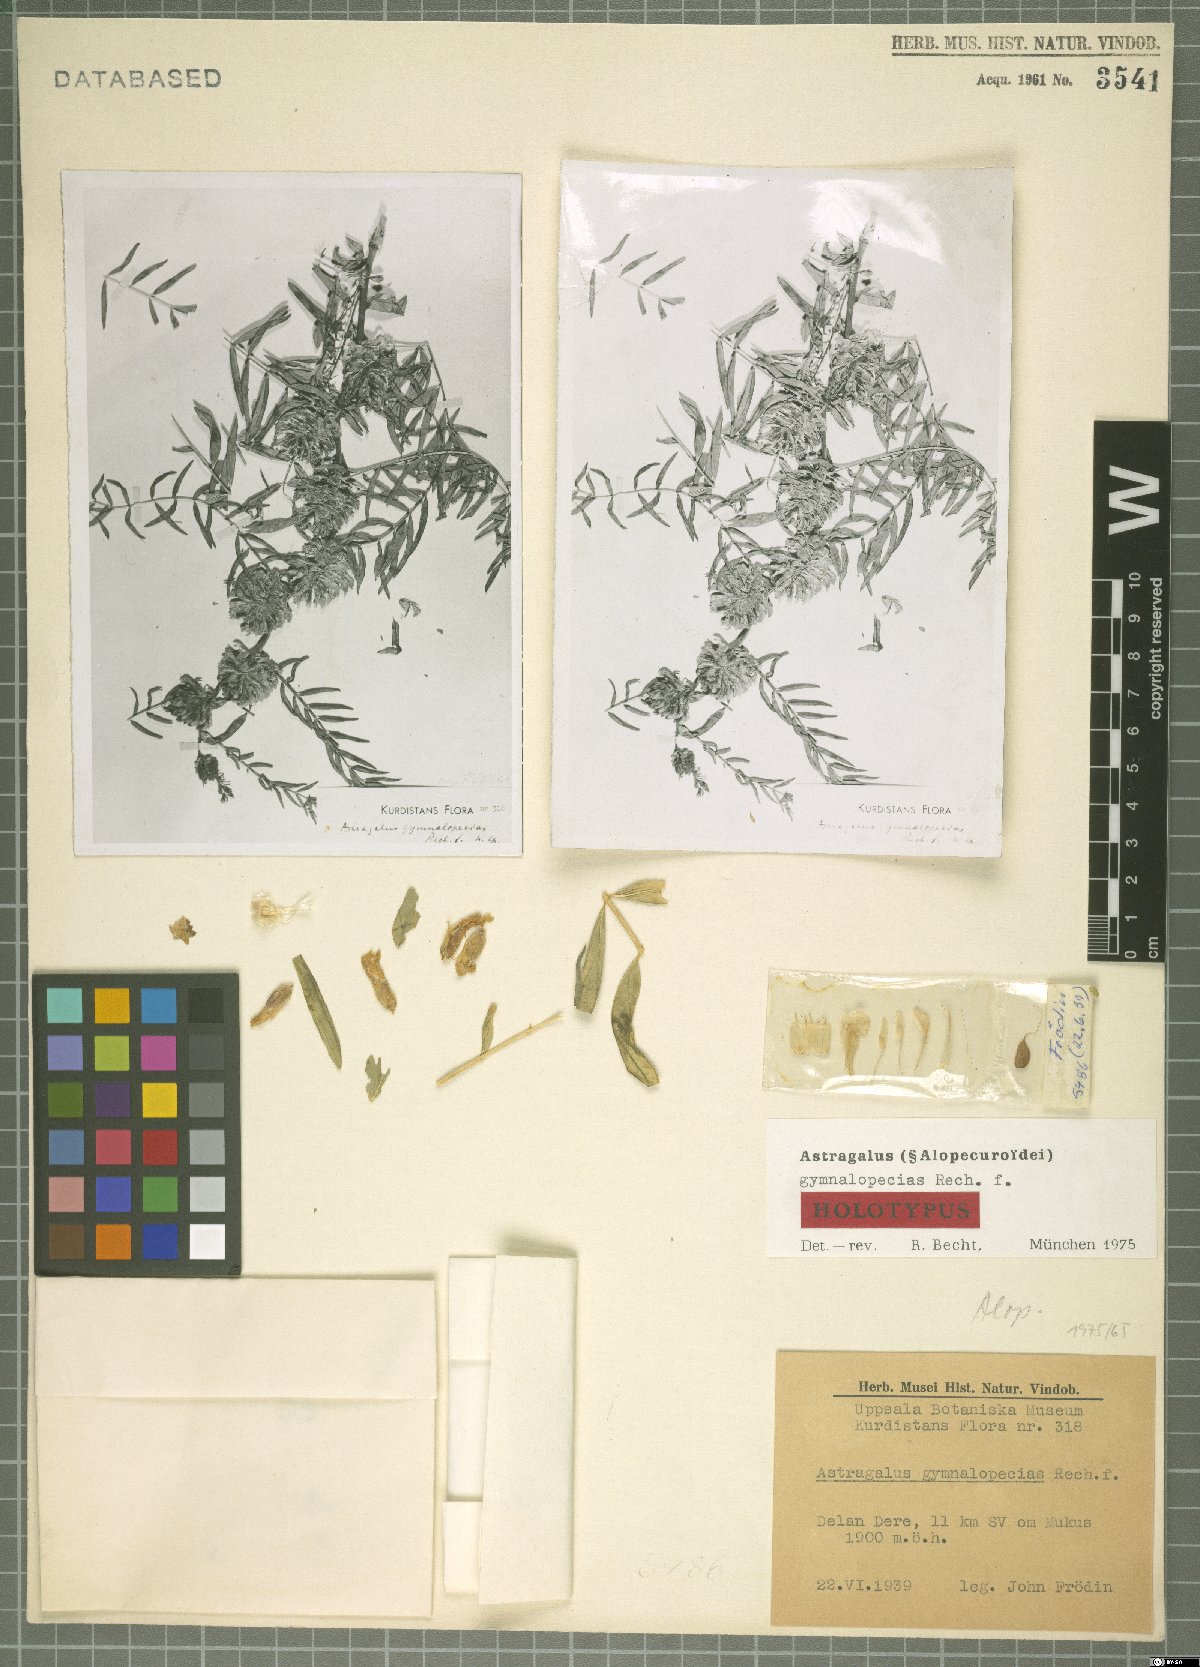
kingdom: Plantae
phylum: Tracheophyta
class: Magnoliopsida
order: Fabales
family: Fabaceae
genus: Astragalus
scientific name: Astragalus gymnalopecias
